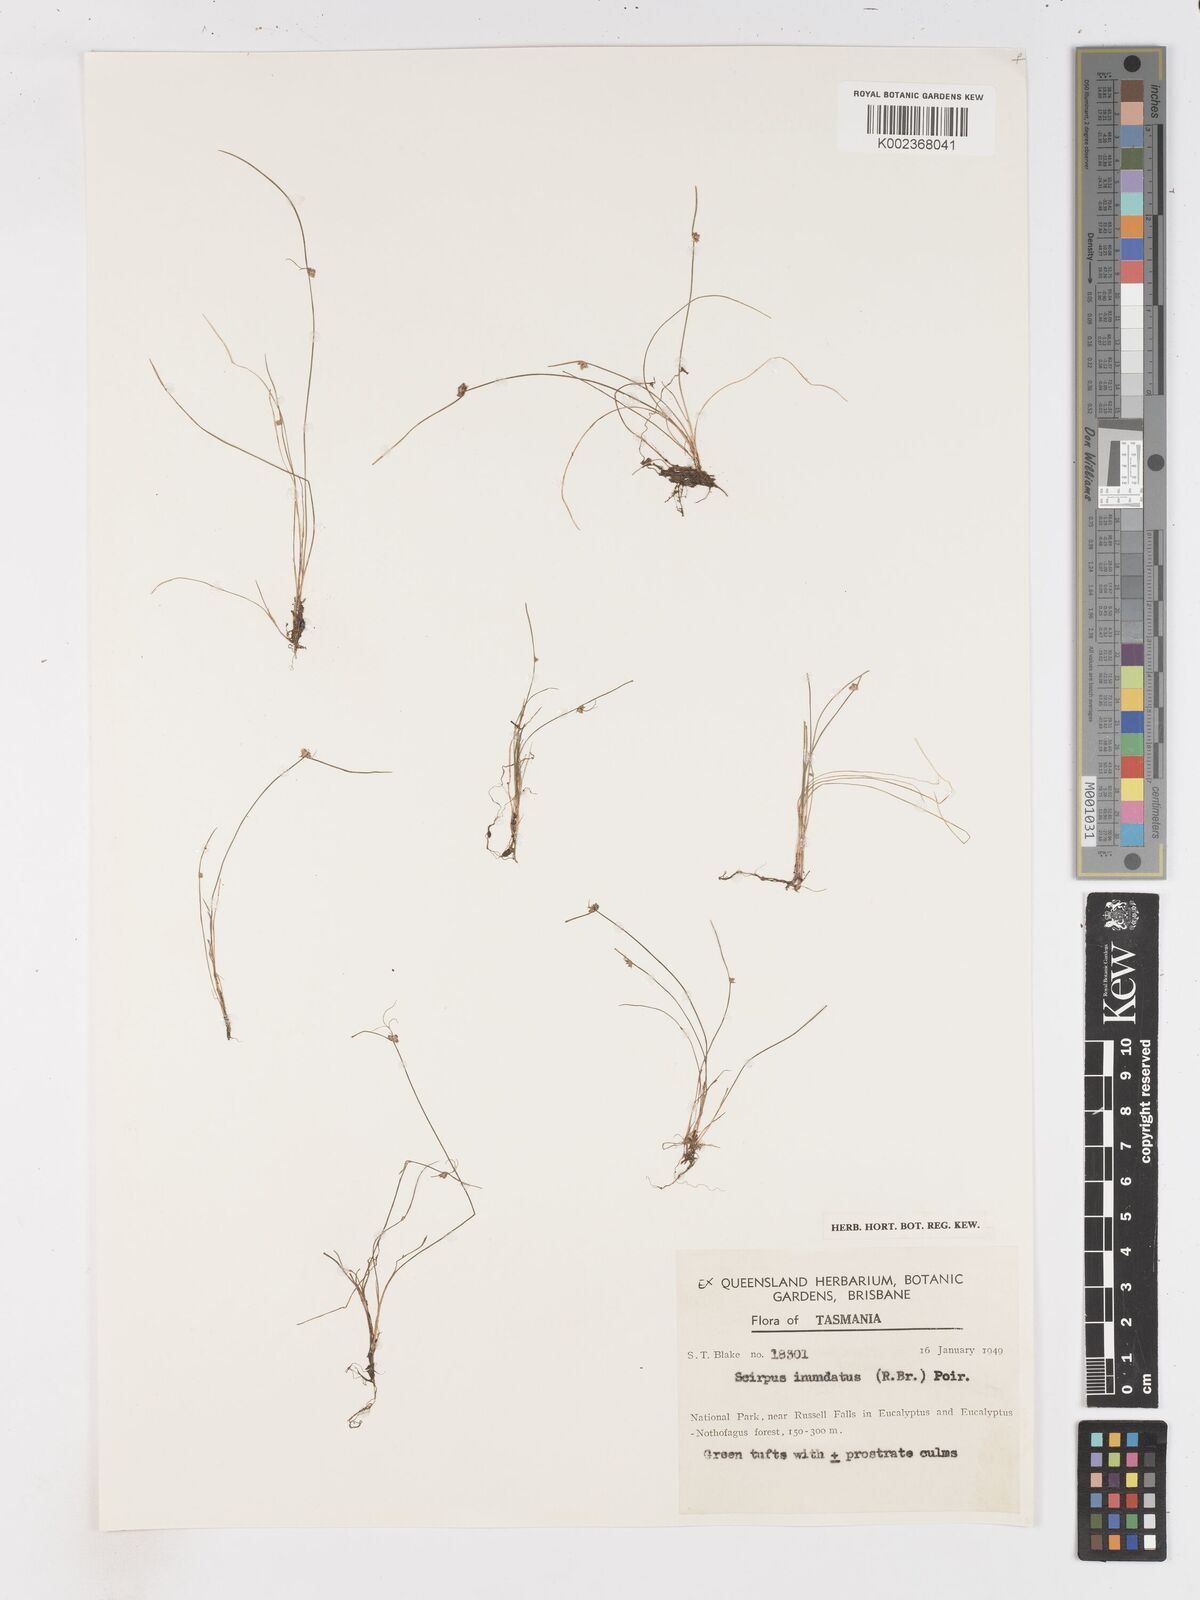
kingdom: Plantae
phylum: Tracheophyta
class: Liliopsida
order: Poales
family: Cyperaceae
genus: Isolepis
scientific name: Isolepis inundata
